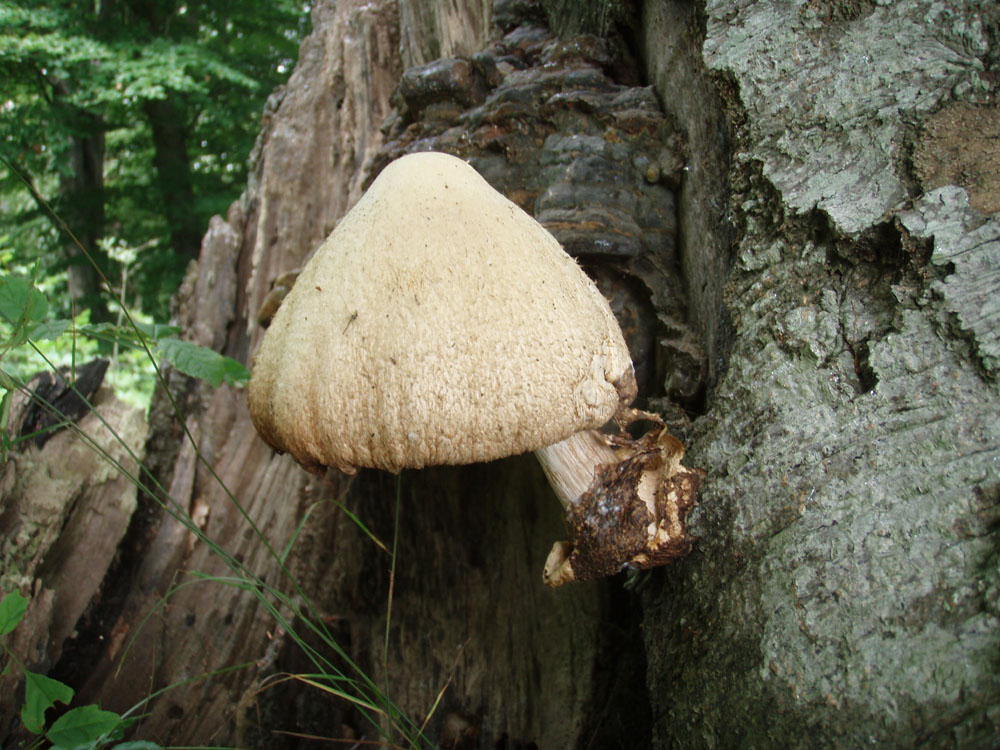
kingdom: Fungi
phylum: Basidiomycota
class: Agaricomycetes
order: Agaricales
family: Pluteaceae
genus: Volvariella
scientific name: Volvariella bombycina
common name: silkehåret posesvamp
